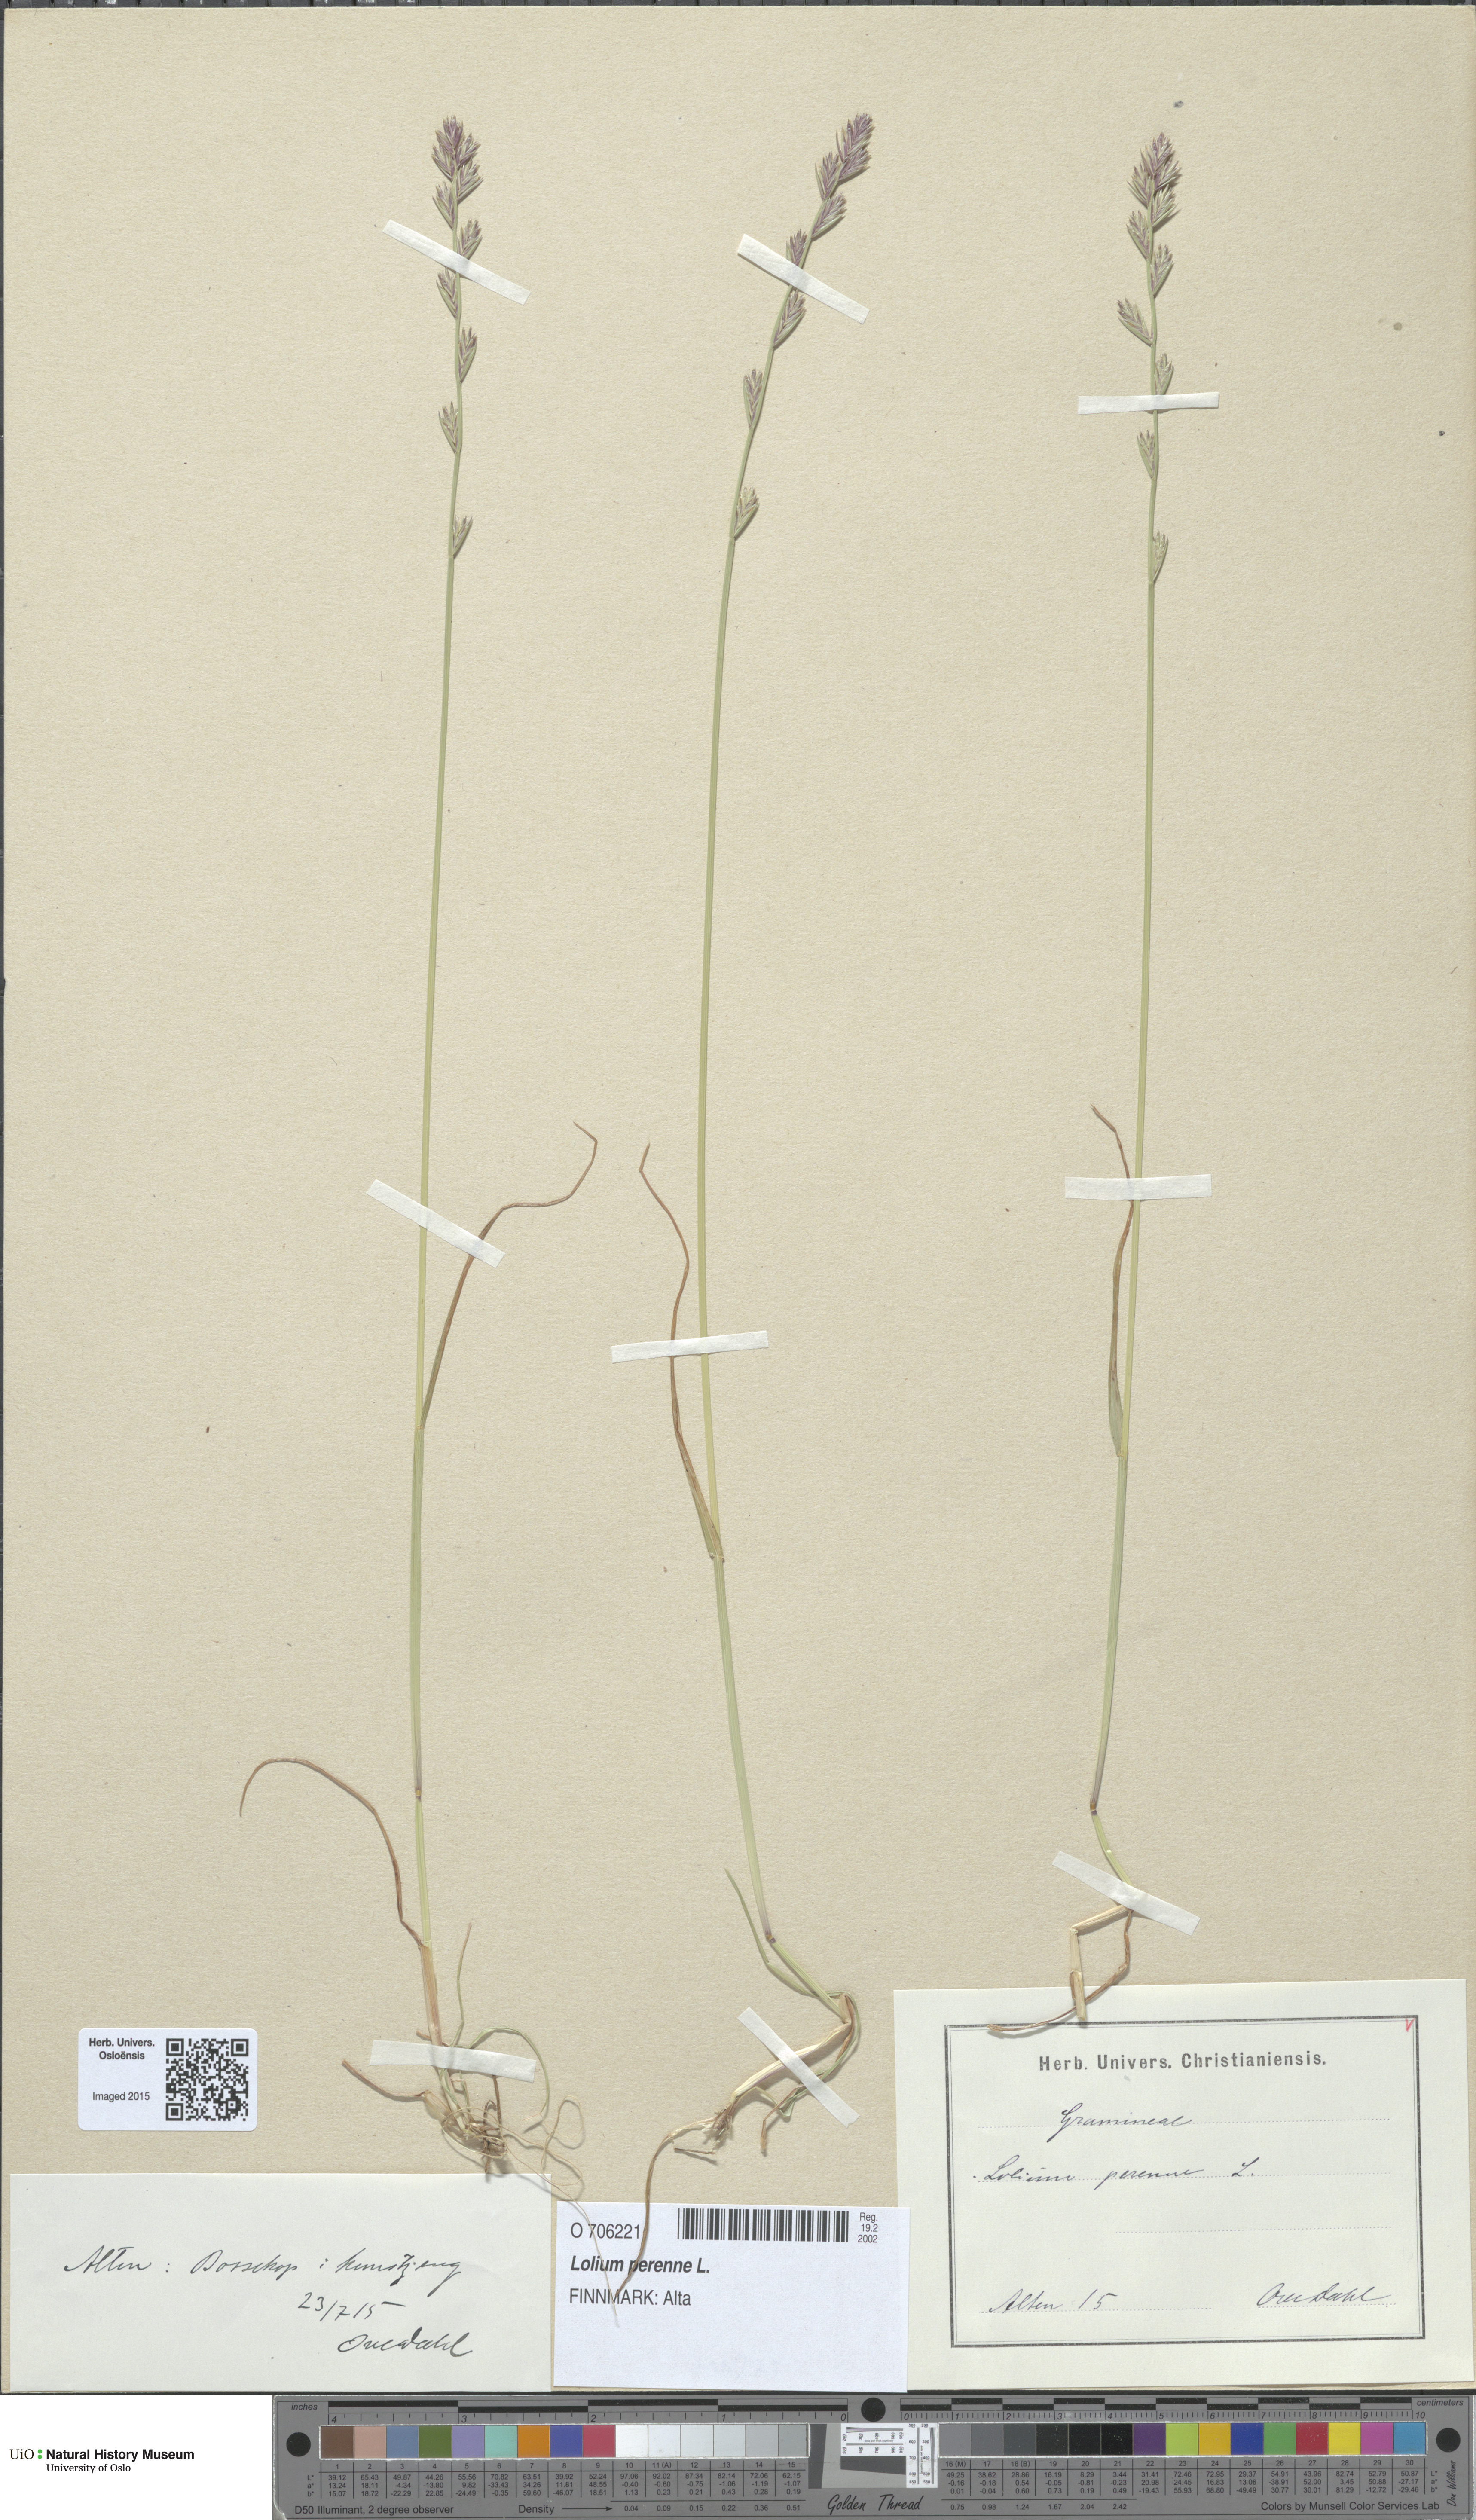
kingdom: Plantae
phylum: Tracheophyta
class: Liliopsida
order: Poales
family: Poaceae
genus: Lolium
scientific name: Lolium perenne
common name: Perennial ryegrass
